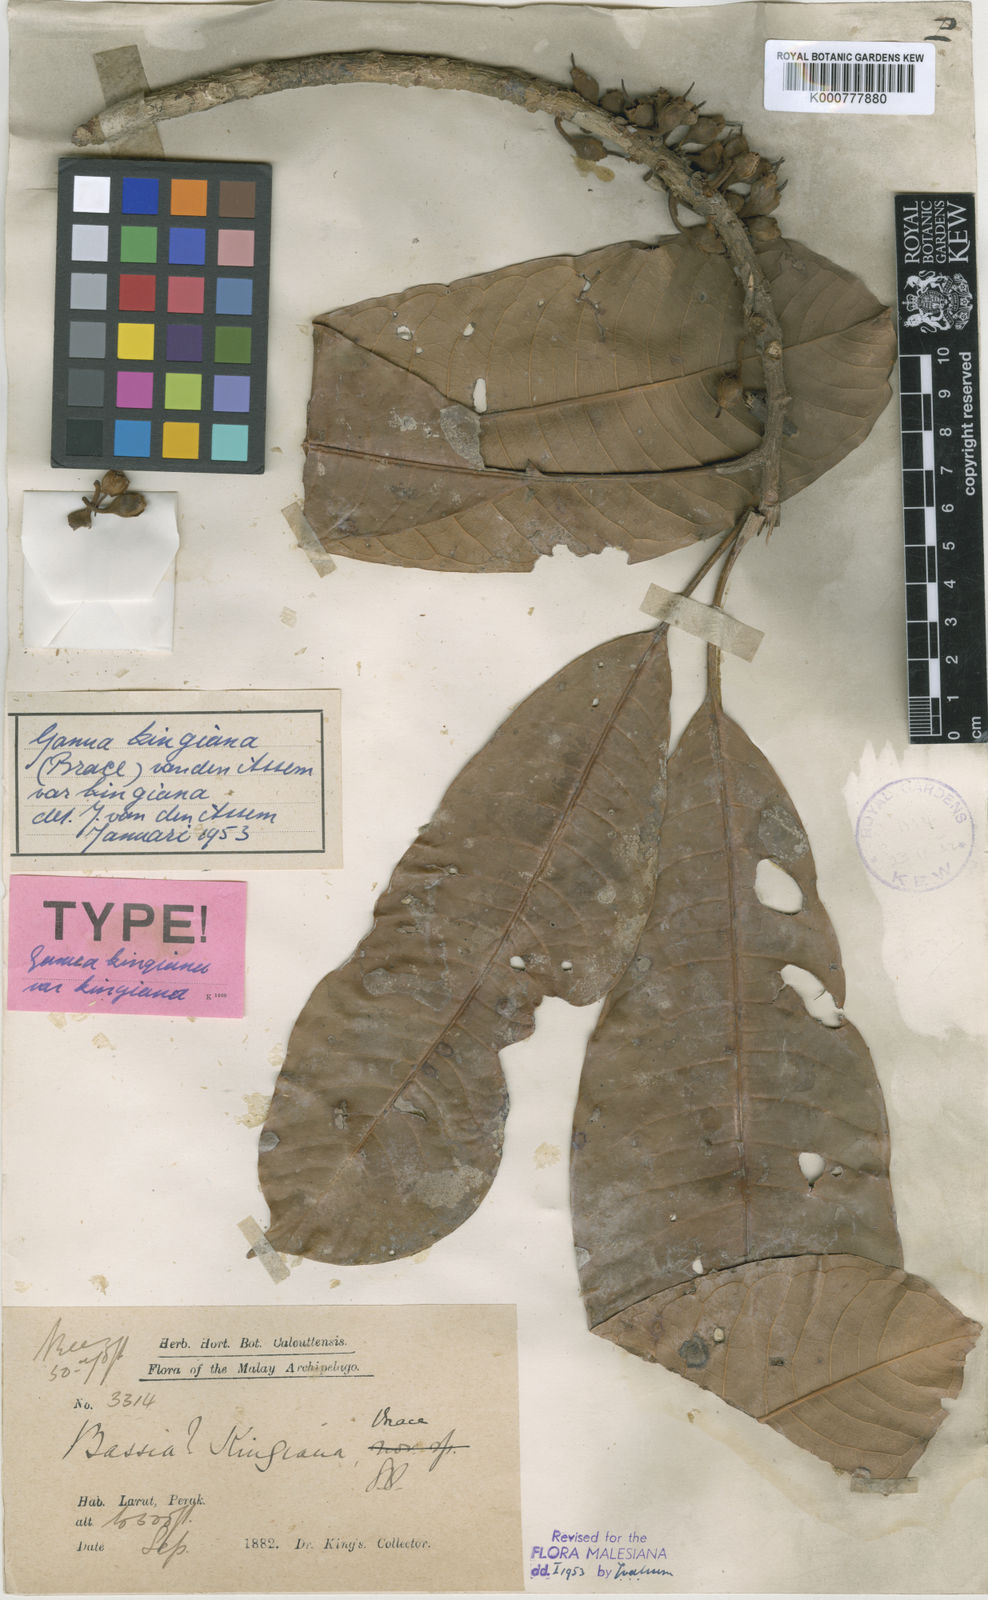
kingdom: Plantae
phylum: Tracheophyta
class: Magnoliopsida
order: Ericales
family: Sapotaceae
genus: Madhuca
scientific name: Madhuca kingiana
